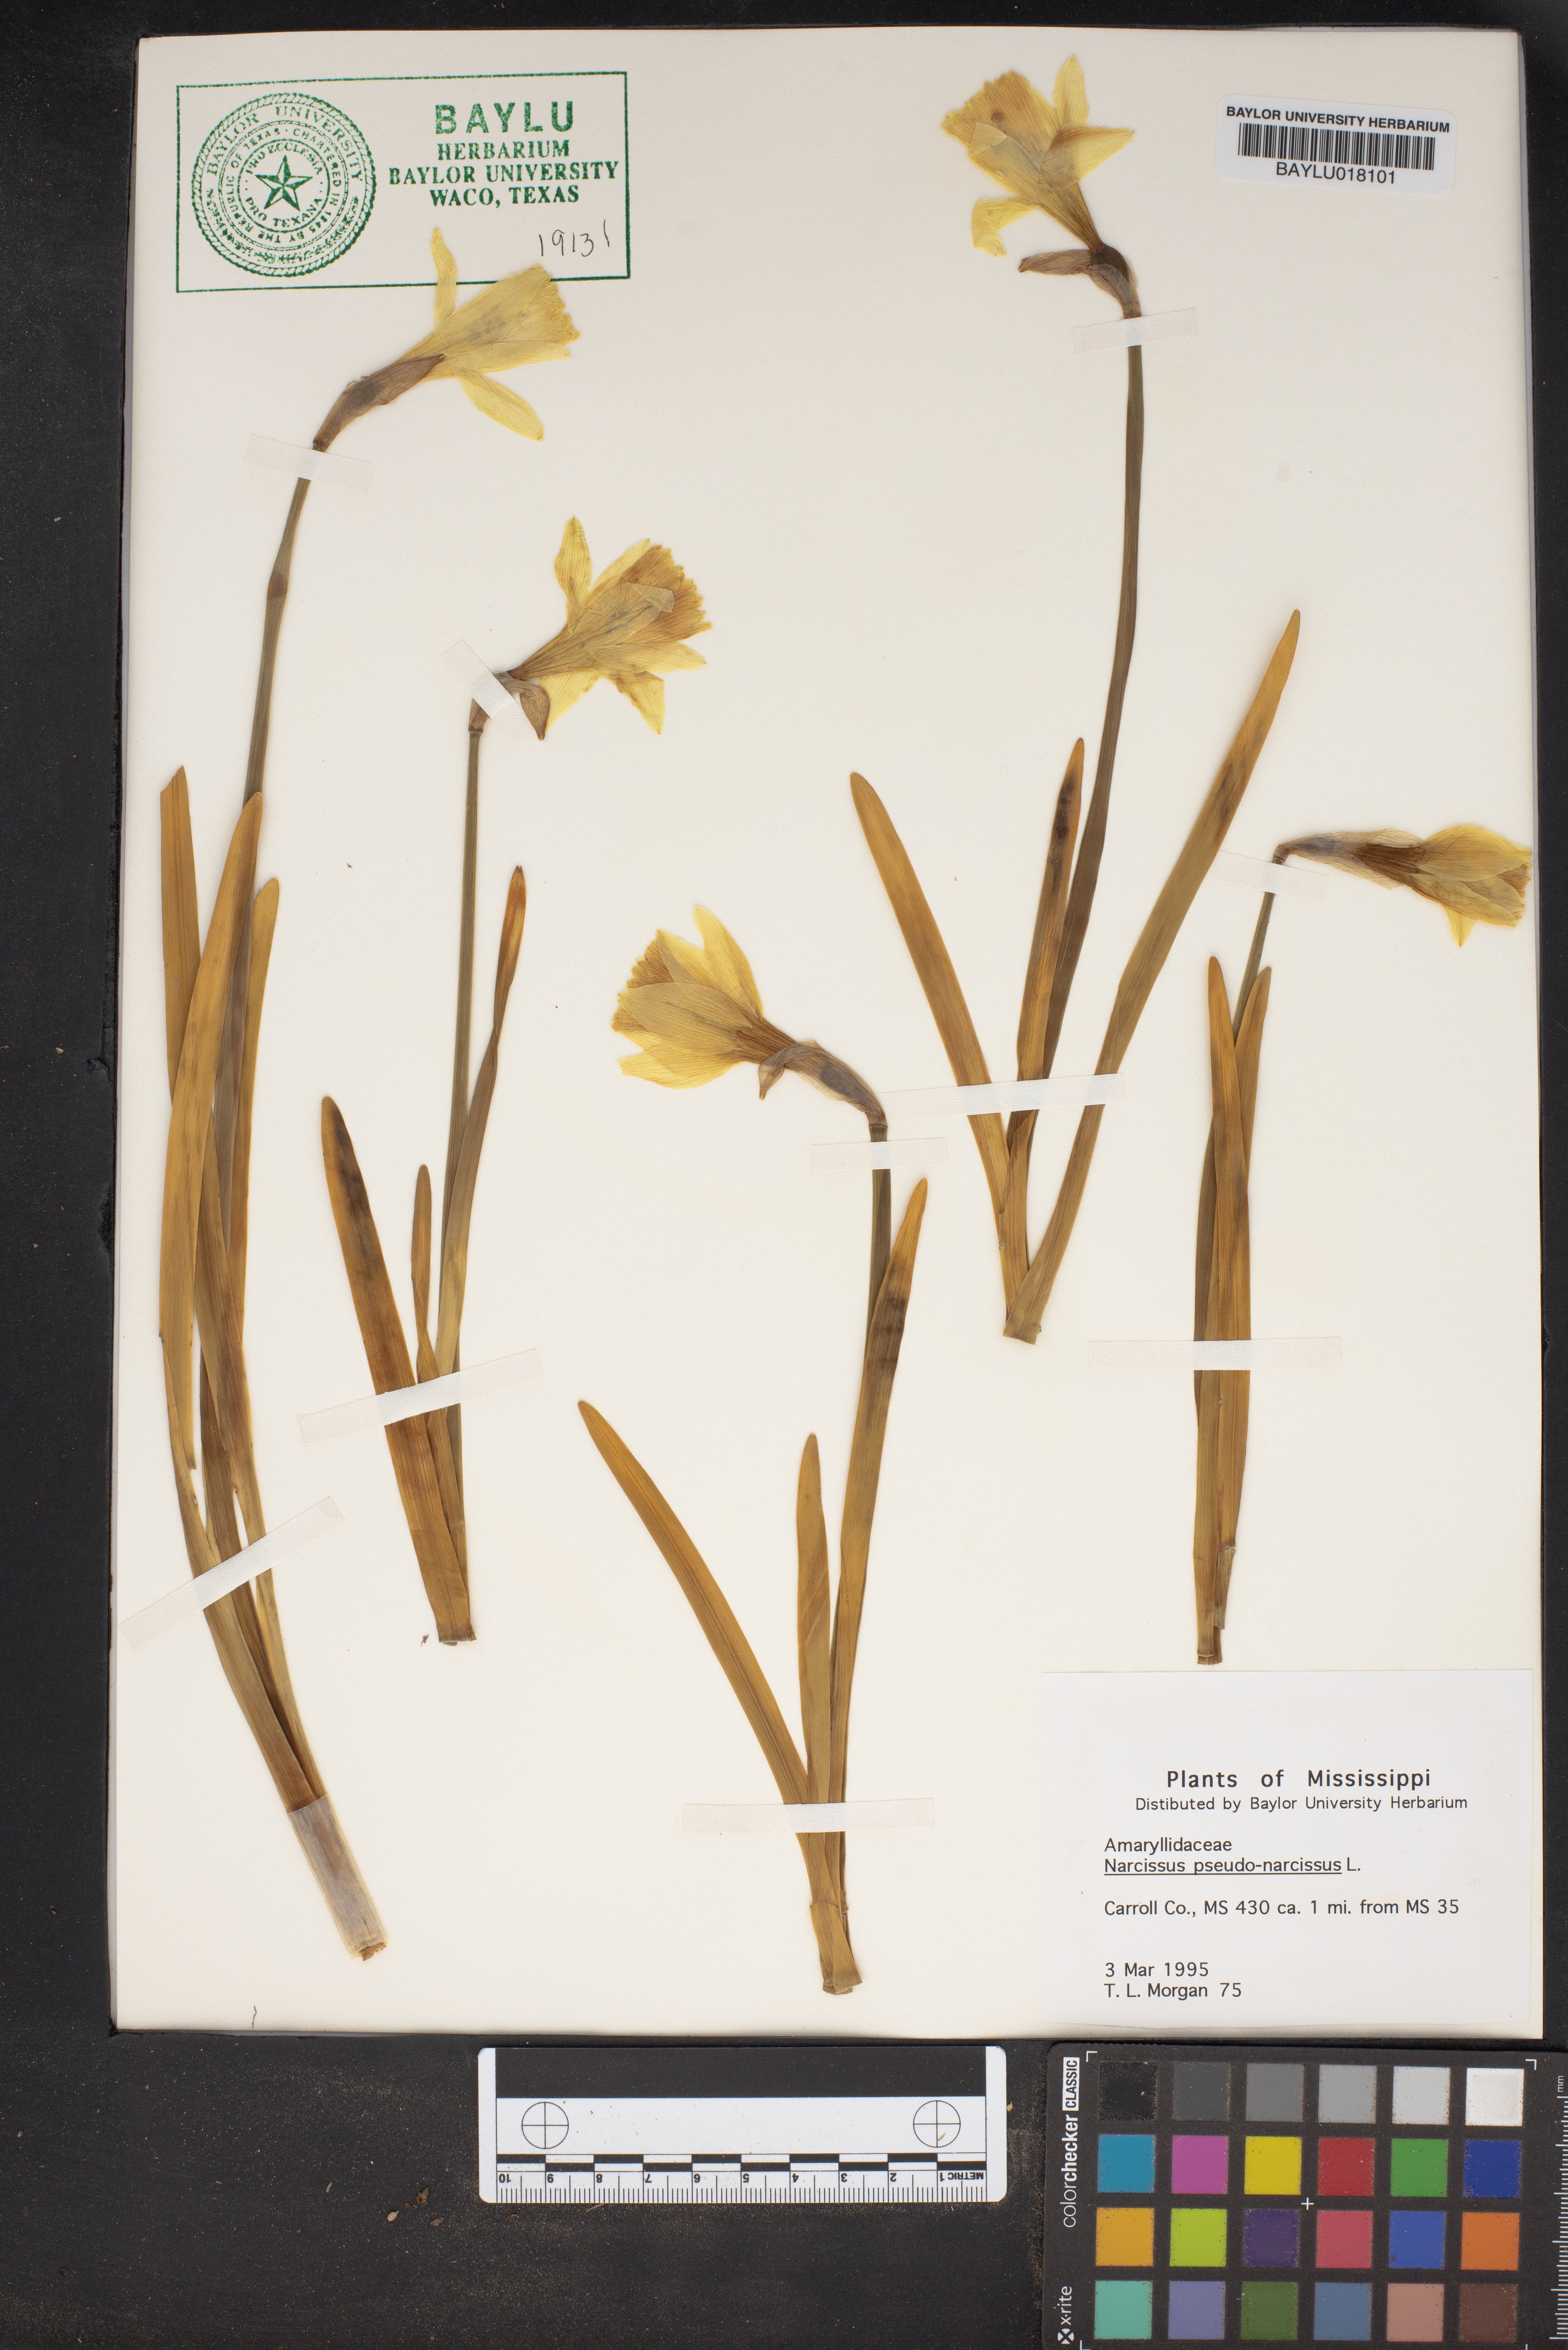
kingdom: Plantae
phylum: Tracheophyta
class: Liliopsida
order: Asparagales
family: Amaryllidaceae
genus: Narcissus
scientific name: Narcissus pseudonarcissus
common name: Daffodil
